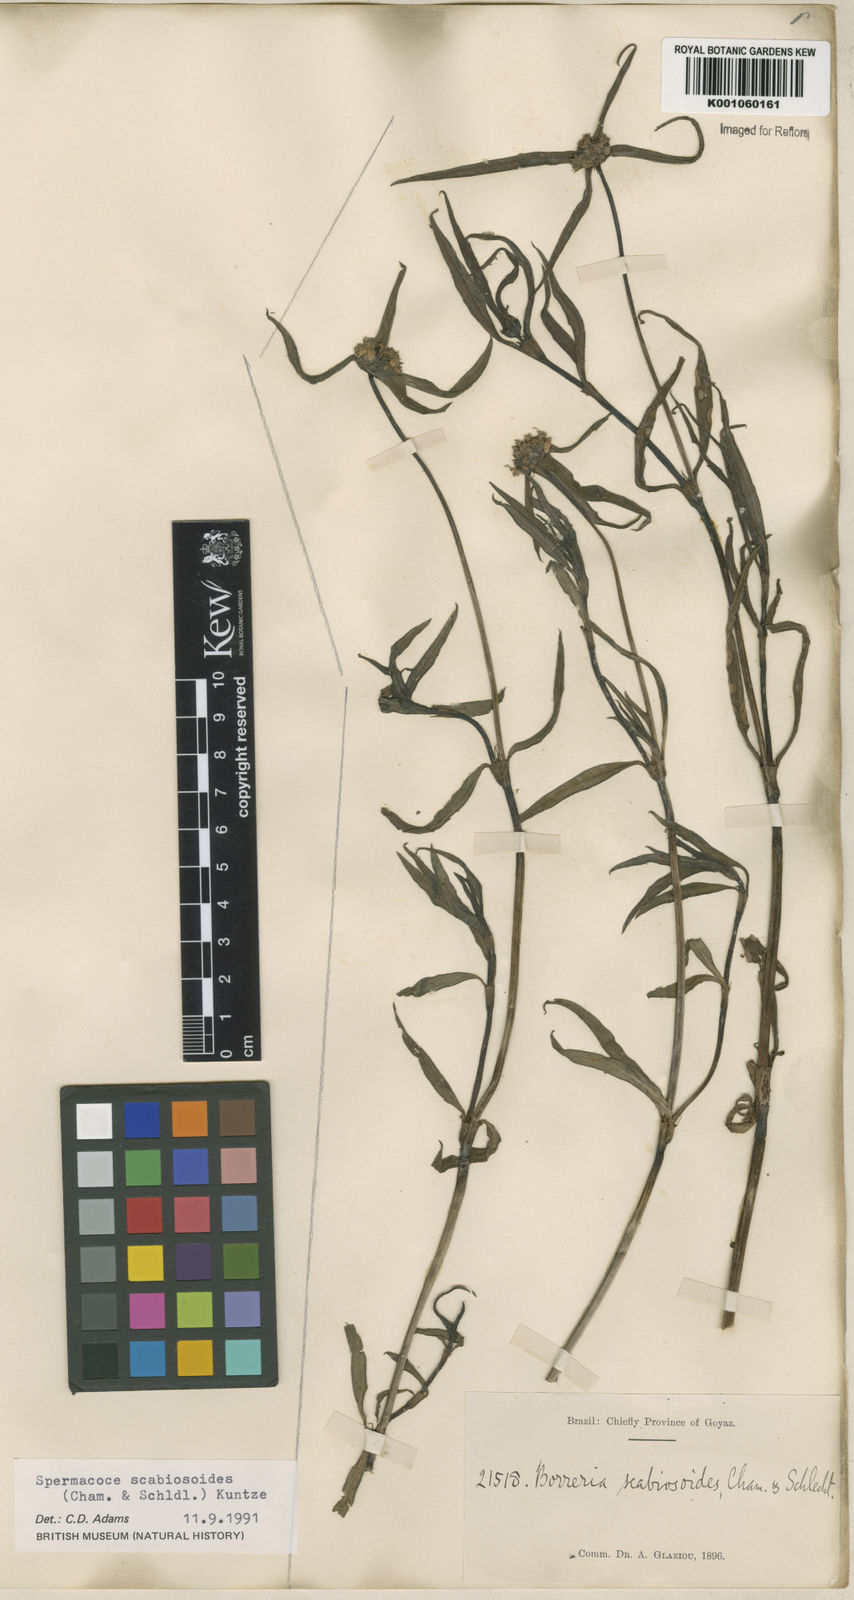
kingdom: Plantae
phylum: Tracheophyta
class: Magnoliopsida
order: Gentianales
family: Rubiaceae
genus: Spermacoce
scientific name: Spermacoce scabiosoides
